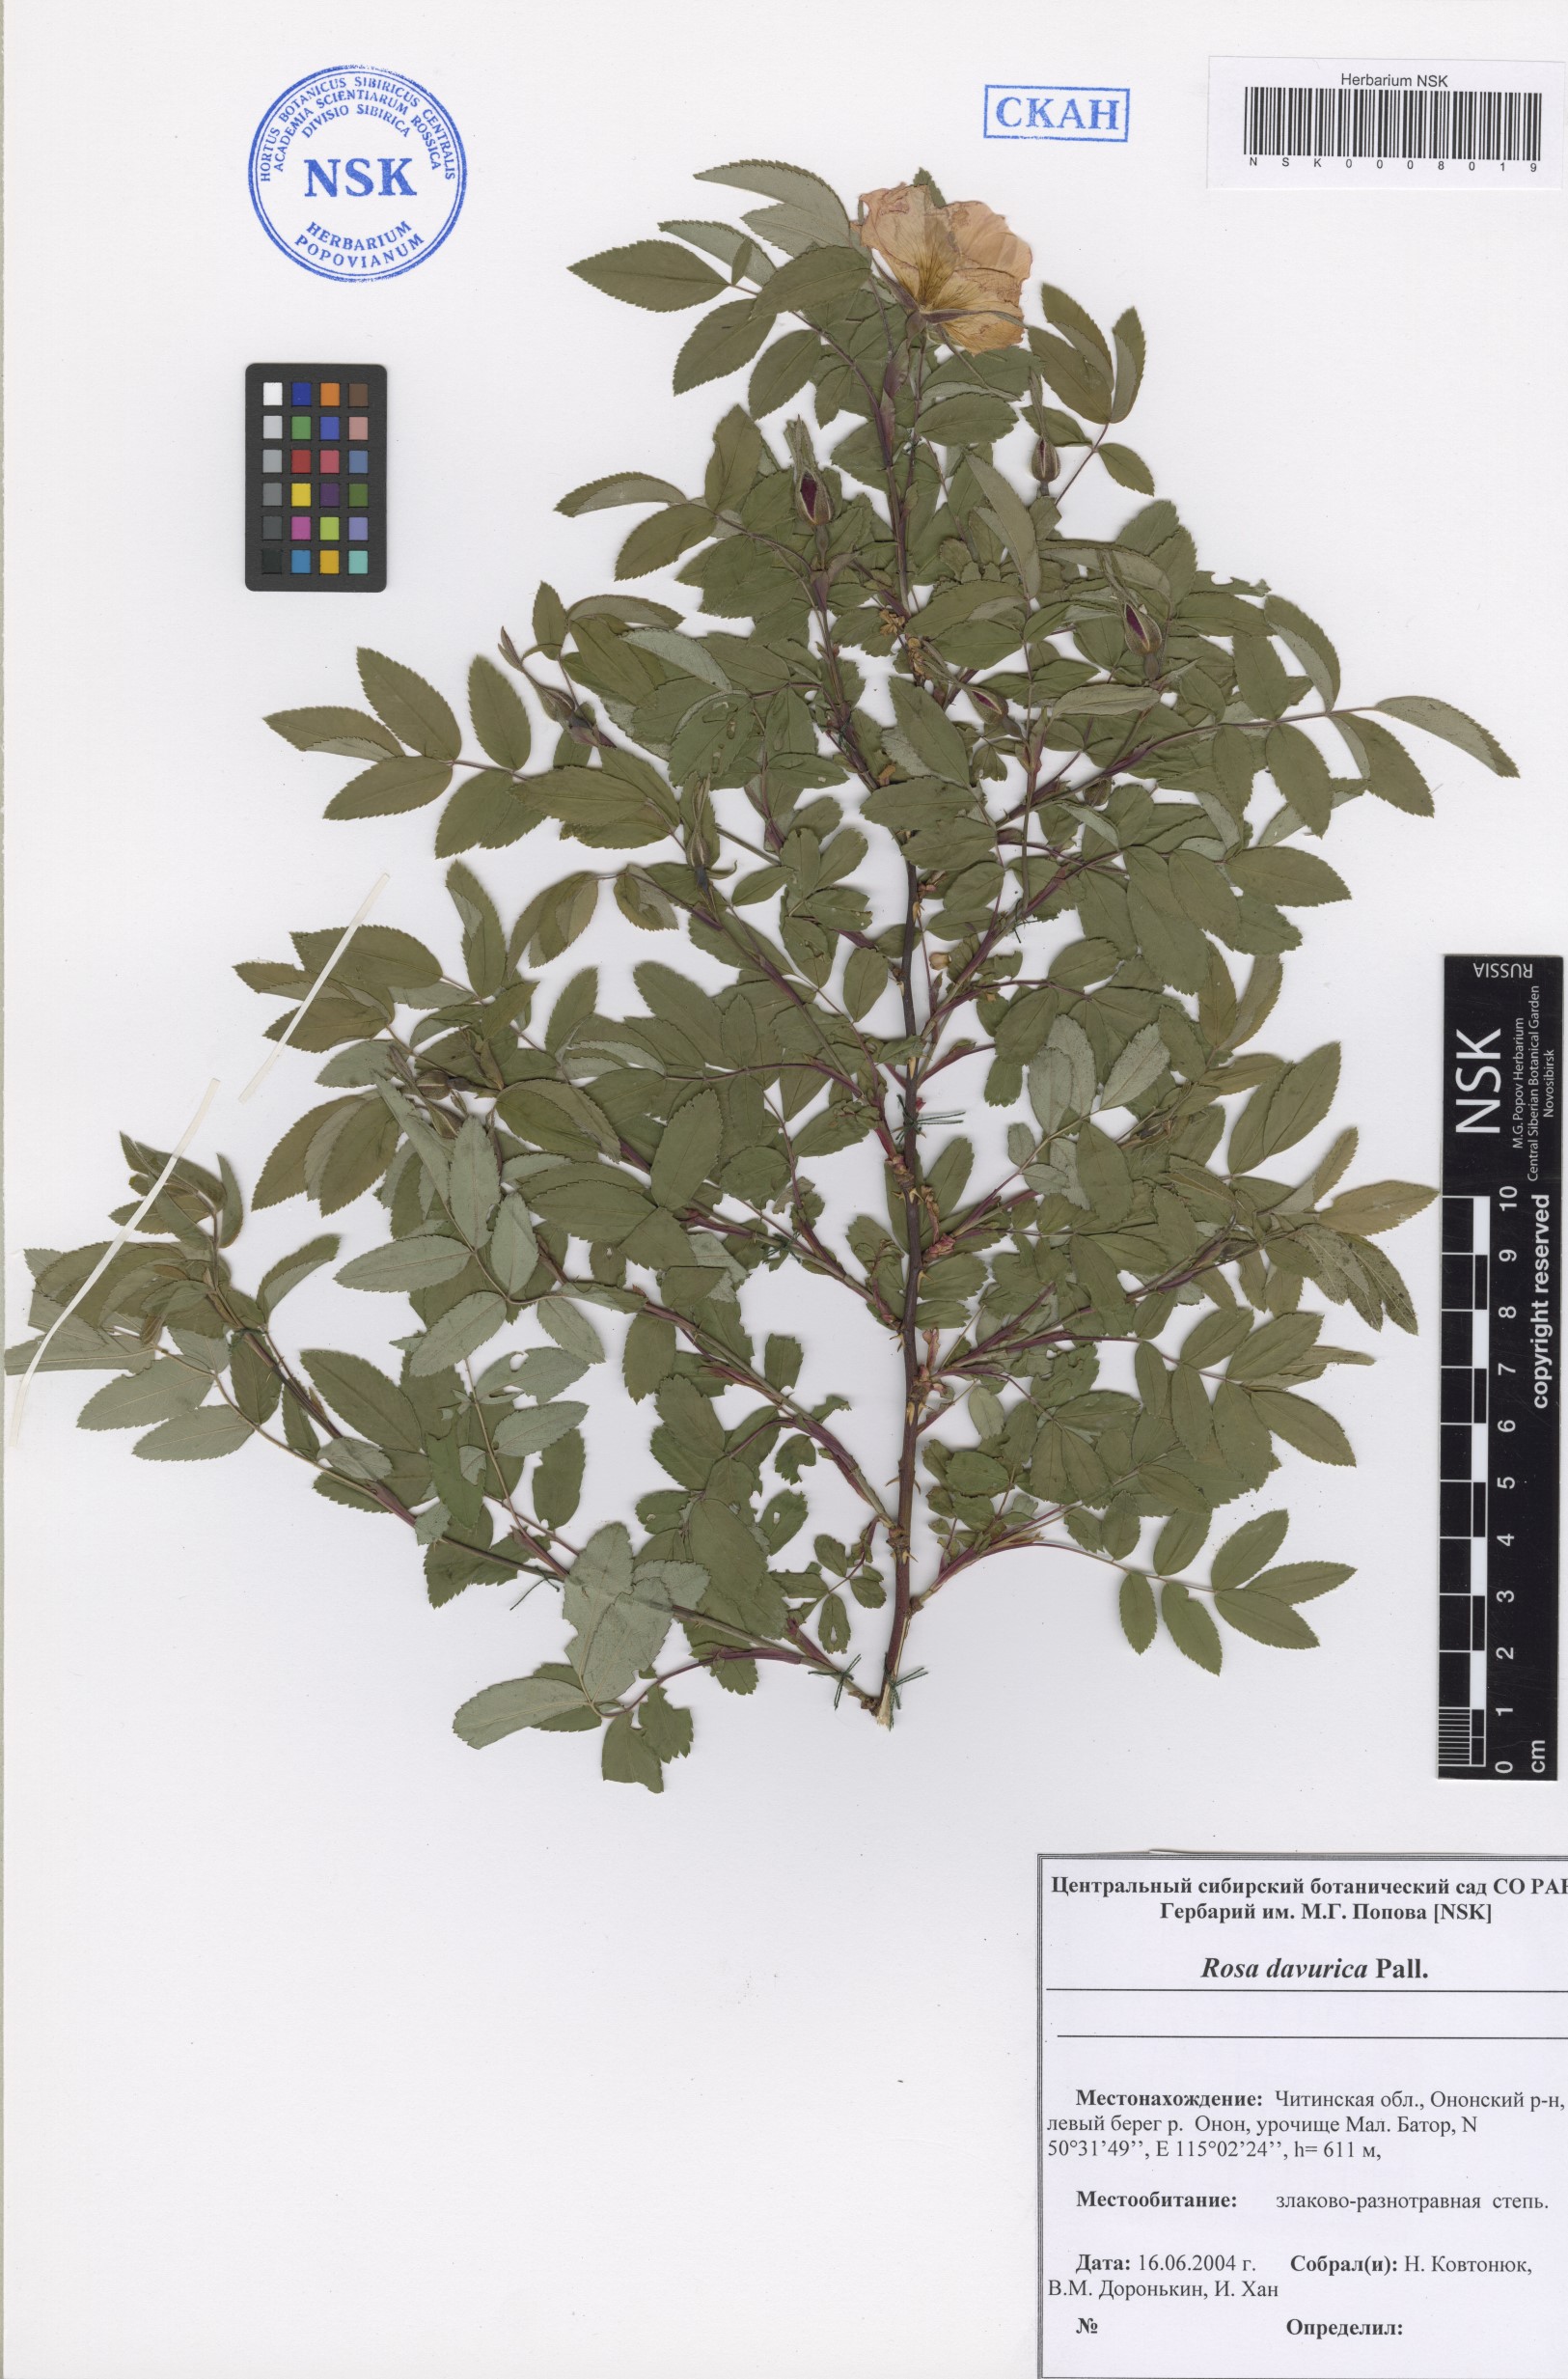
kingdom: Plantae
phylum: Tracheophyta
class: Magnoliopsida
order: Rosales
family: Rosaceae
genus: Rosa
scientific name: Rosa davurica
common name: Amur rose
